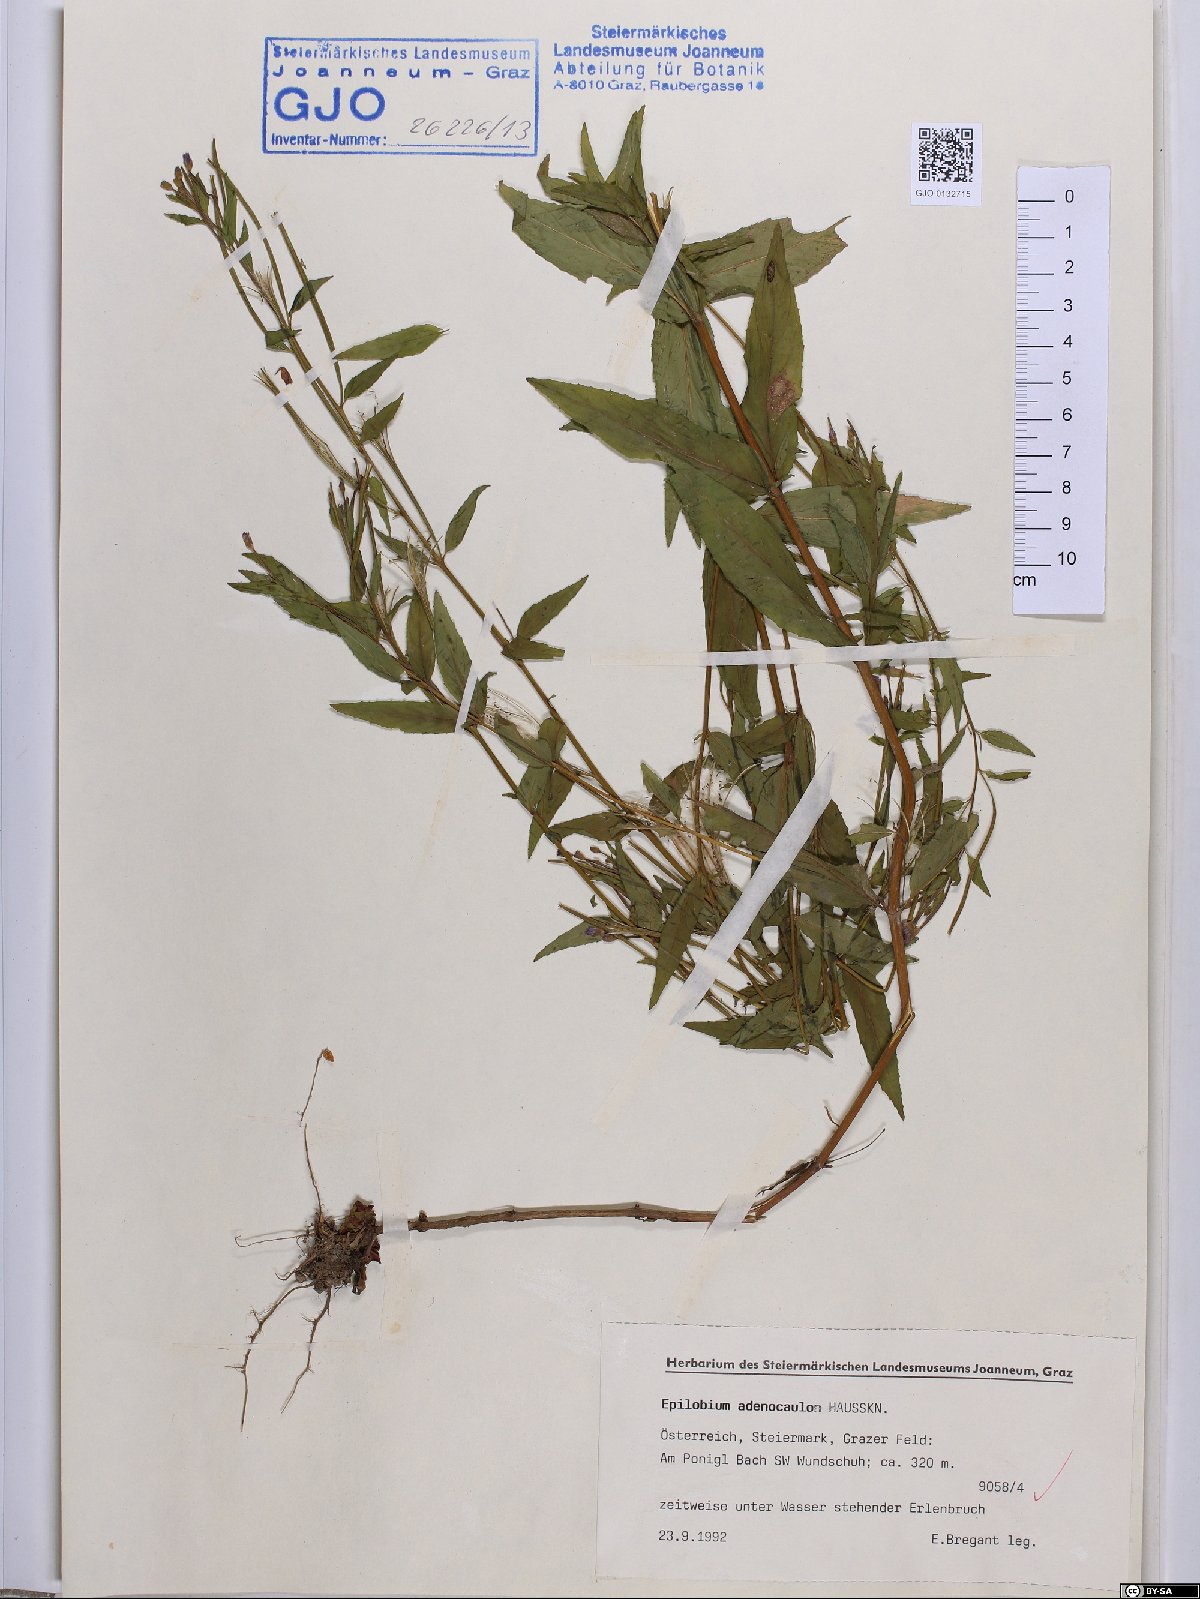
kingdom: Plantae
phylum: Tracheophyta
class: Magnoliopsida
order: Myrtales
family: Onagraceae
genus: Epilobium
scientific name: Epilobium ciliatum
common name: American willowherb
